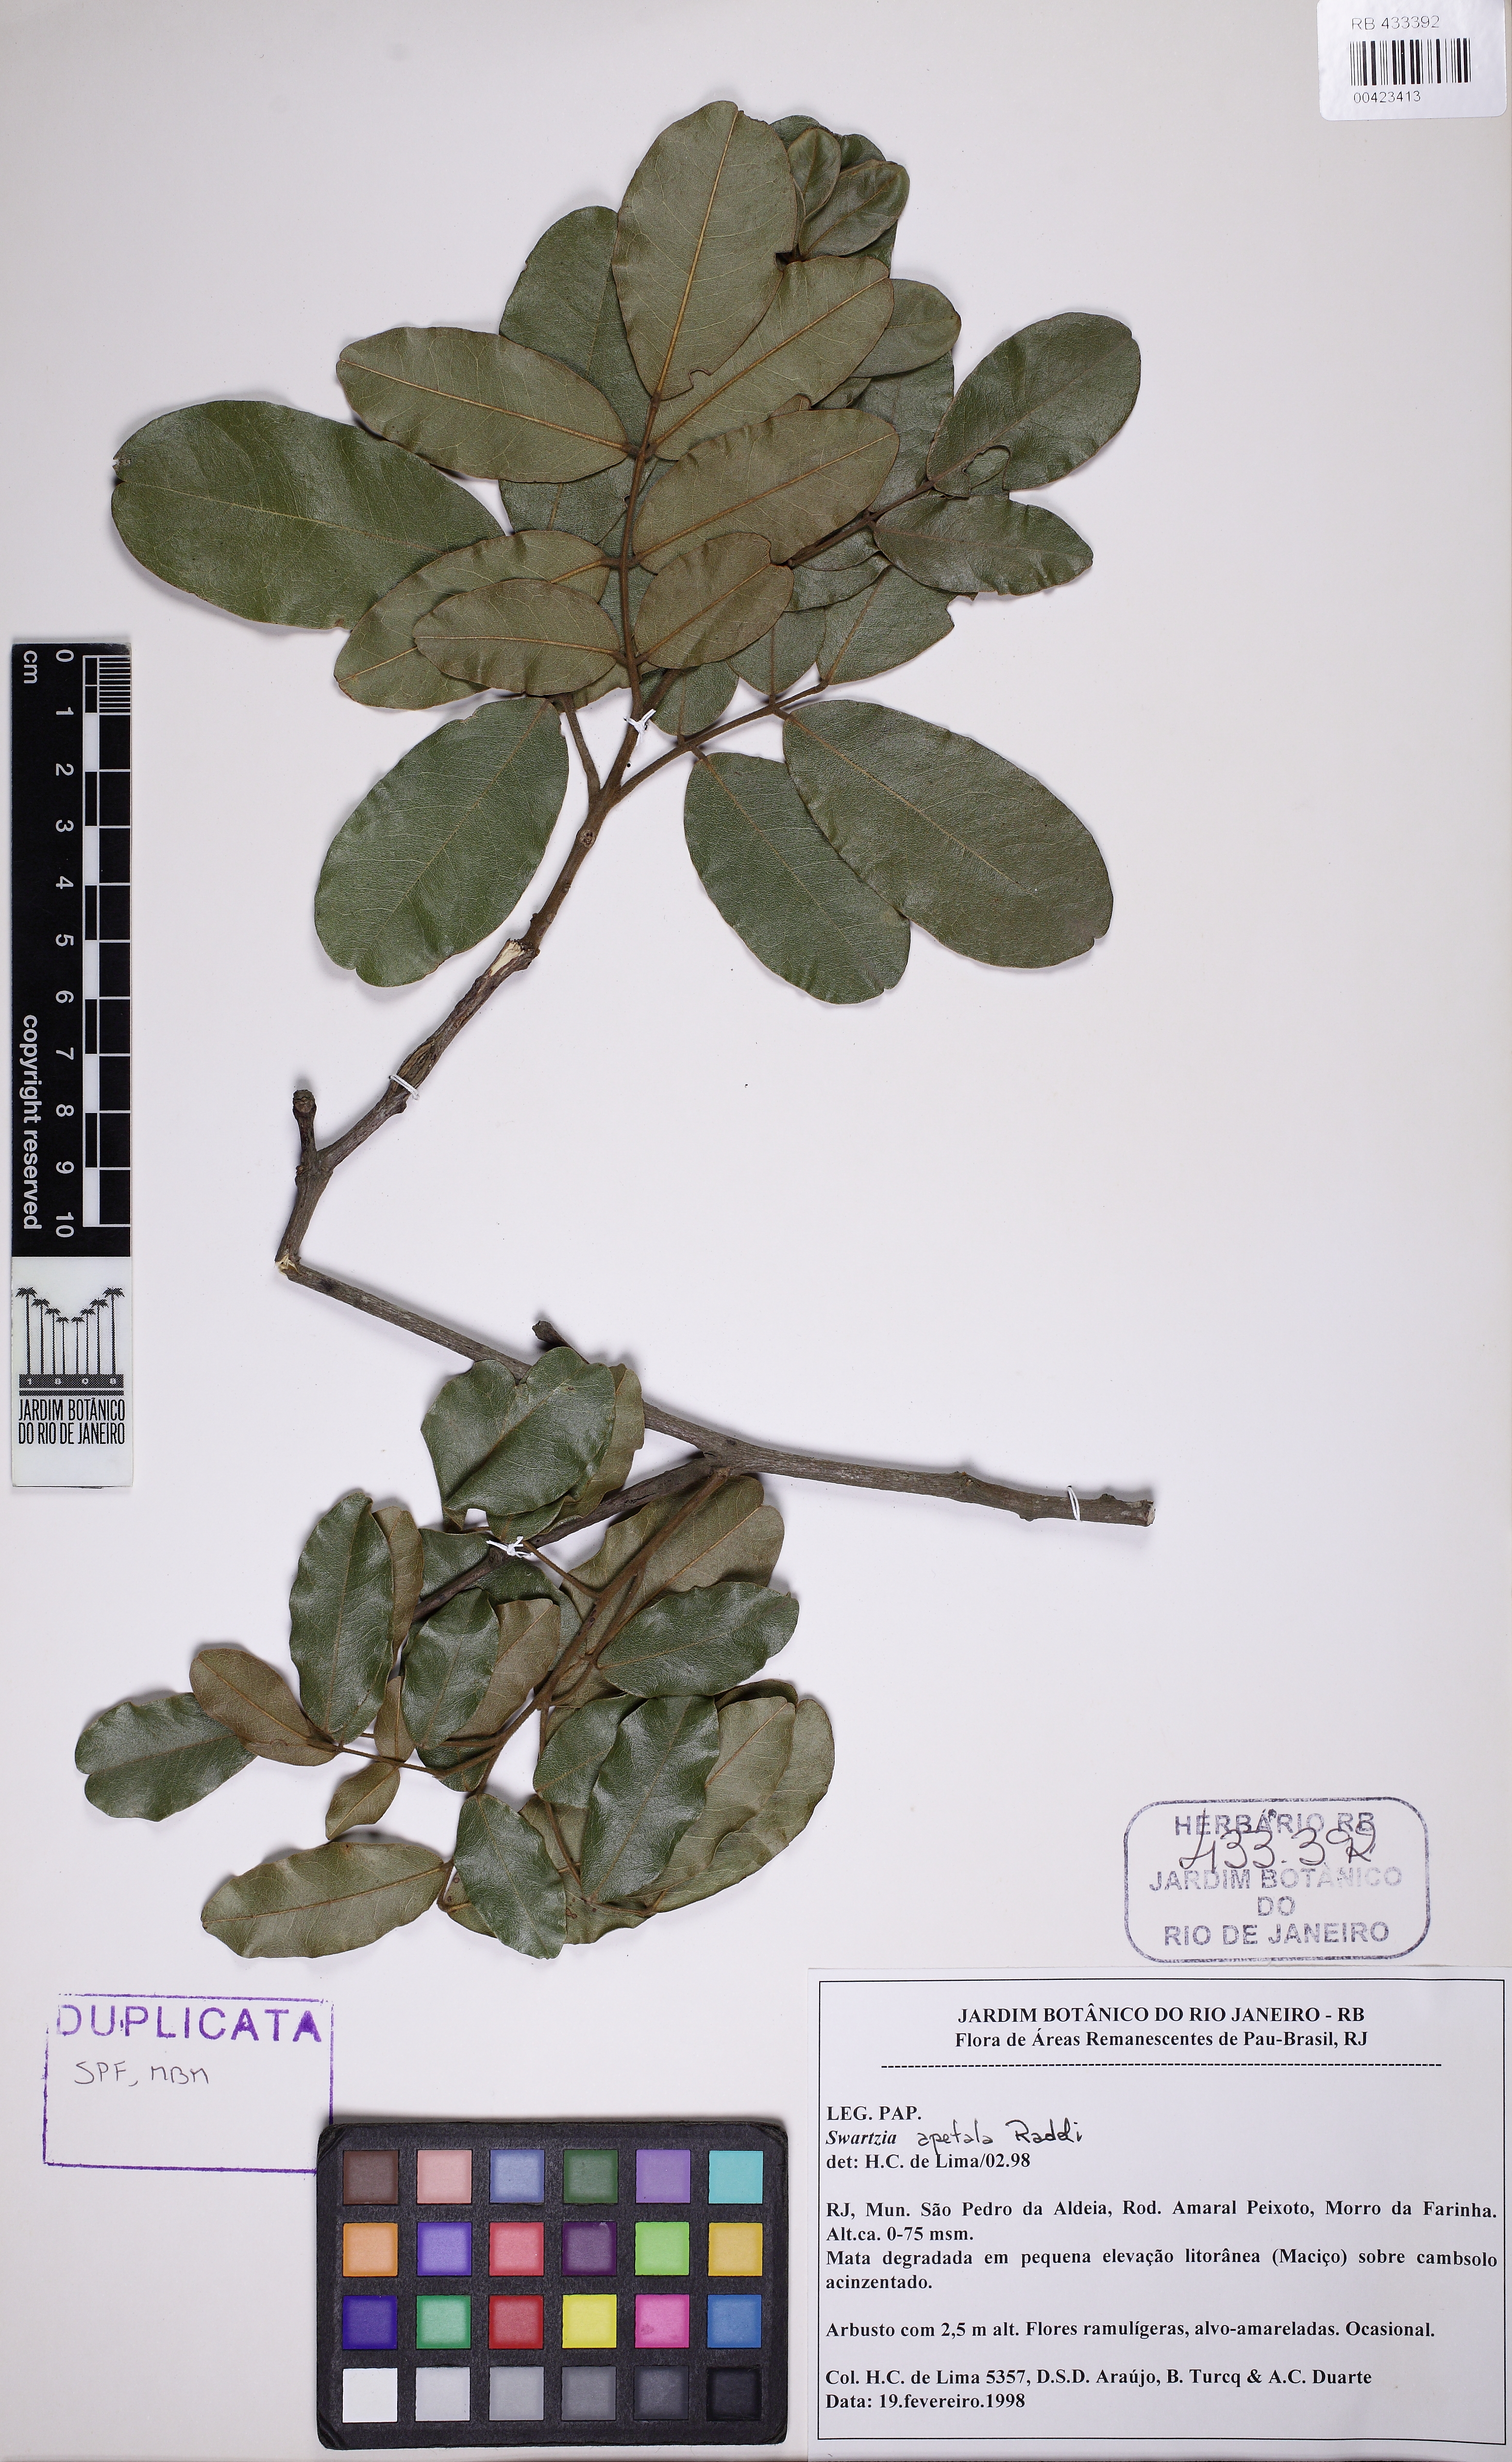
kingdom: Plantae
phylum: Tracheophyta
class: Magnoliopsida
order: Fabales
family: Fabaceae
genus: Swartzia
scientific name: Swartzia apetala
